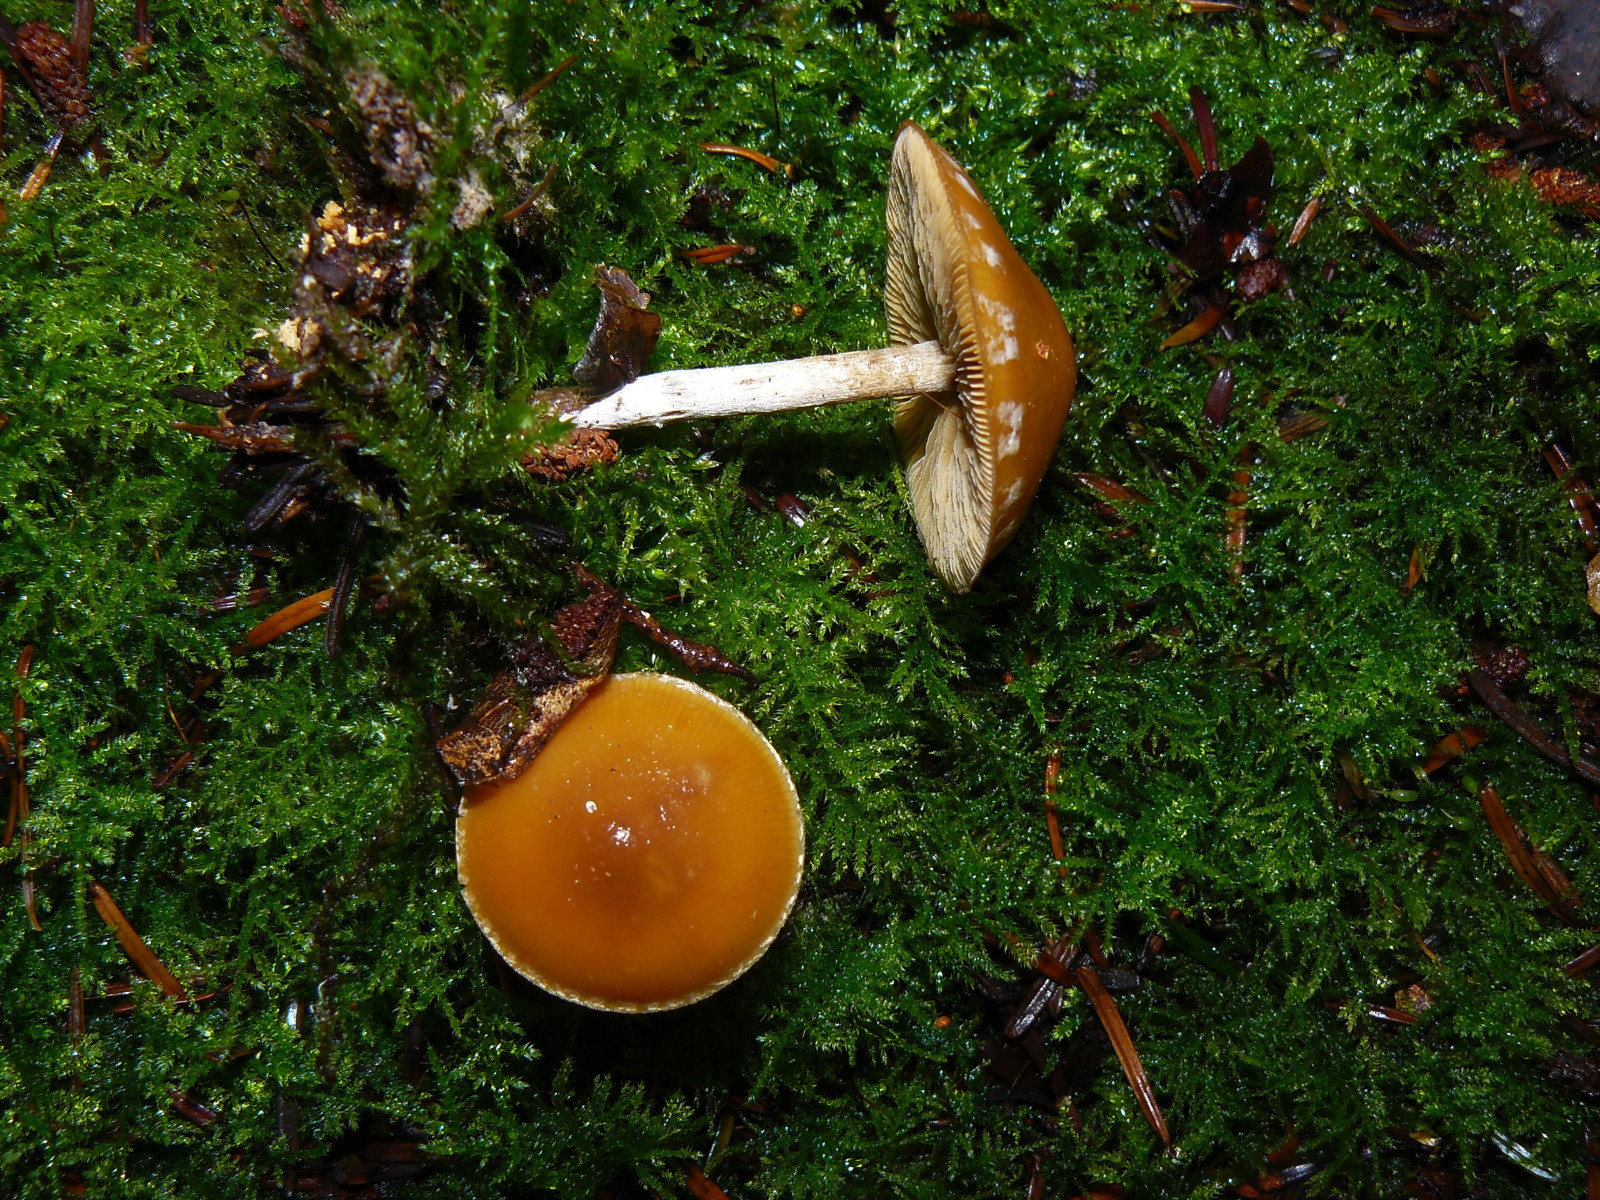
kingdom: Fungi
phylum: Basidiomycota
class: Agaricomycetes
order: Agaricales
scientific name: Agaricales
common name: champignonordenen
